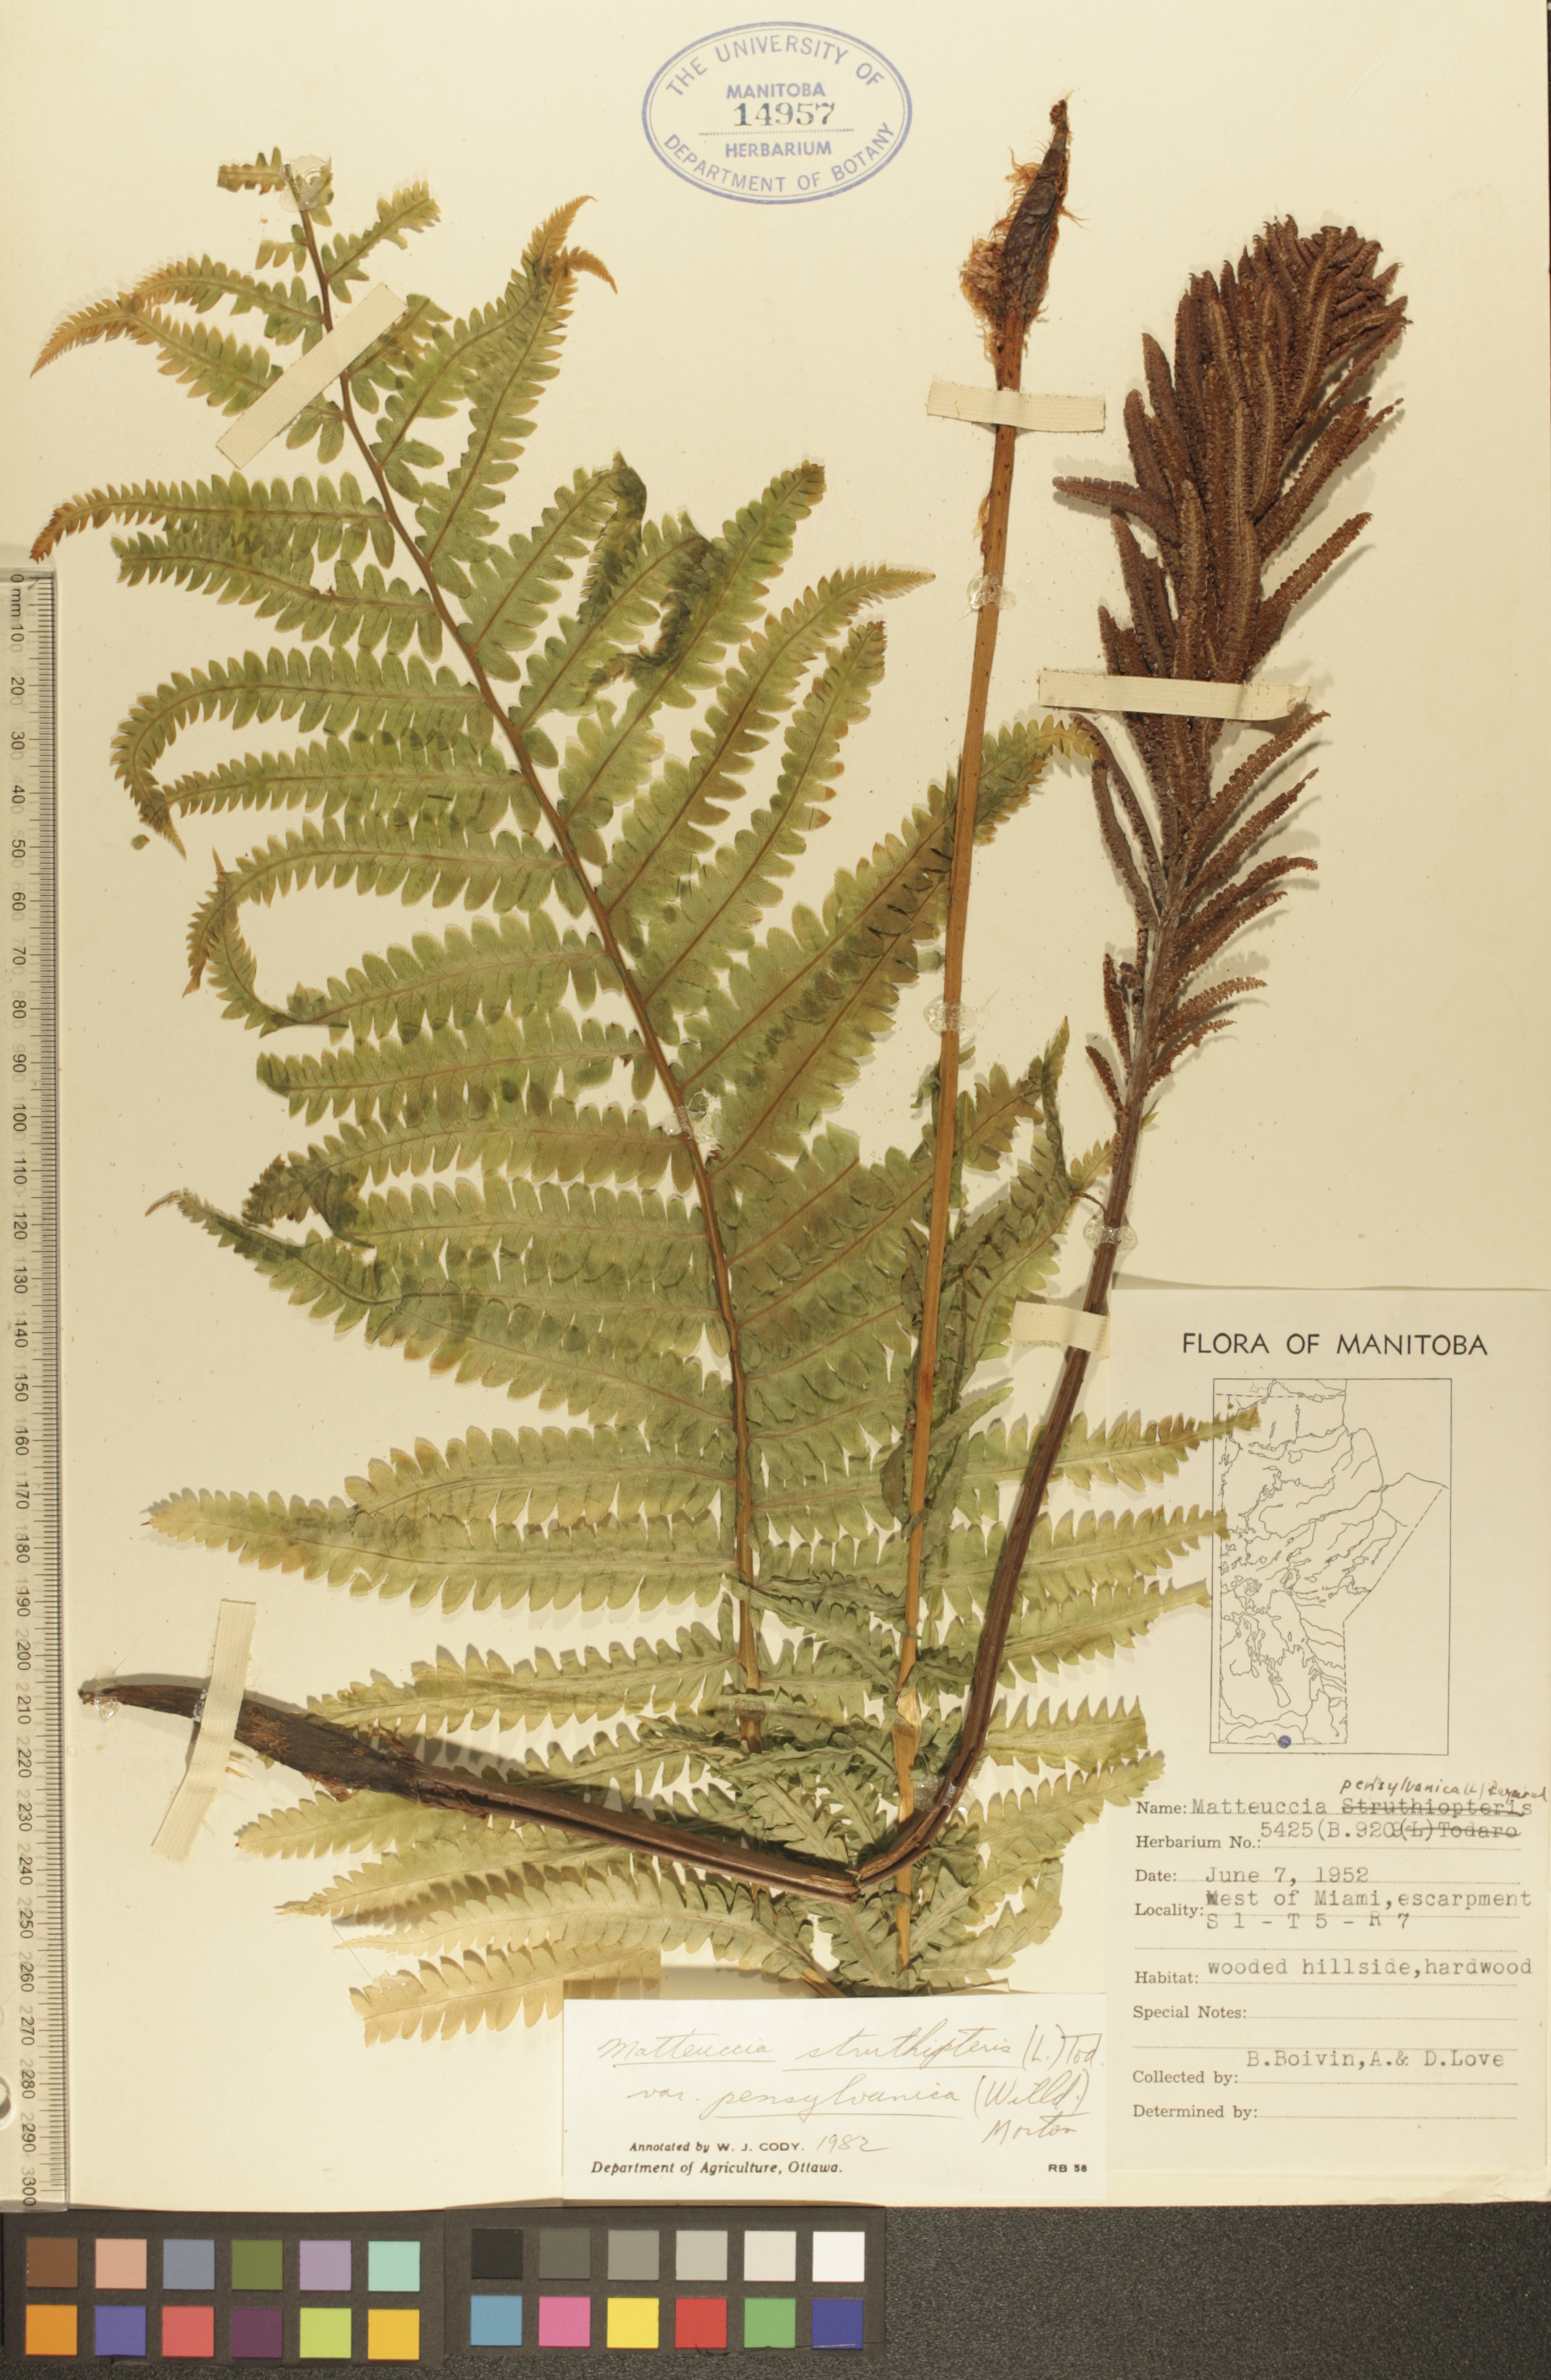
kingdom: Plantae
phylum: Tracheophyta
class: Polypodiopsida
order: Polypodiales
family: Onocleaceae
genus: Matteuccia
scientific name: Matteuccia pensylvanica
